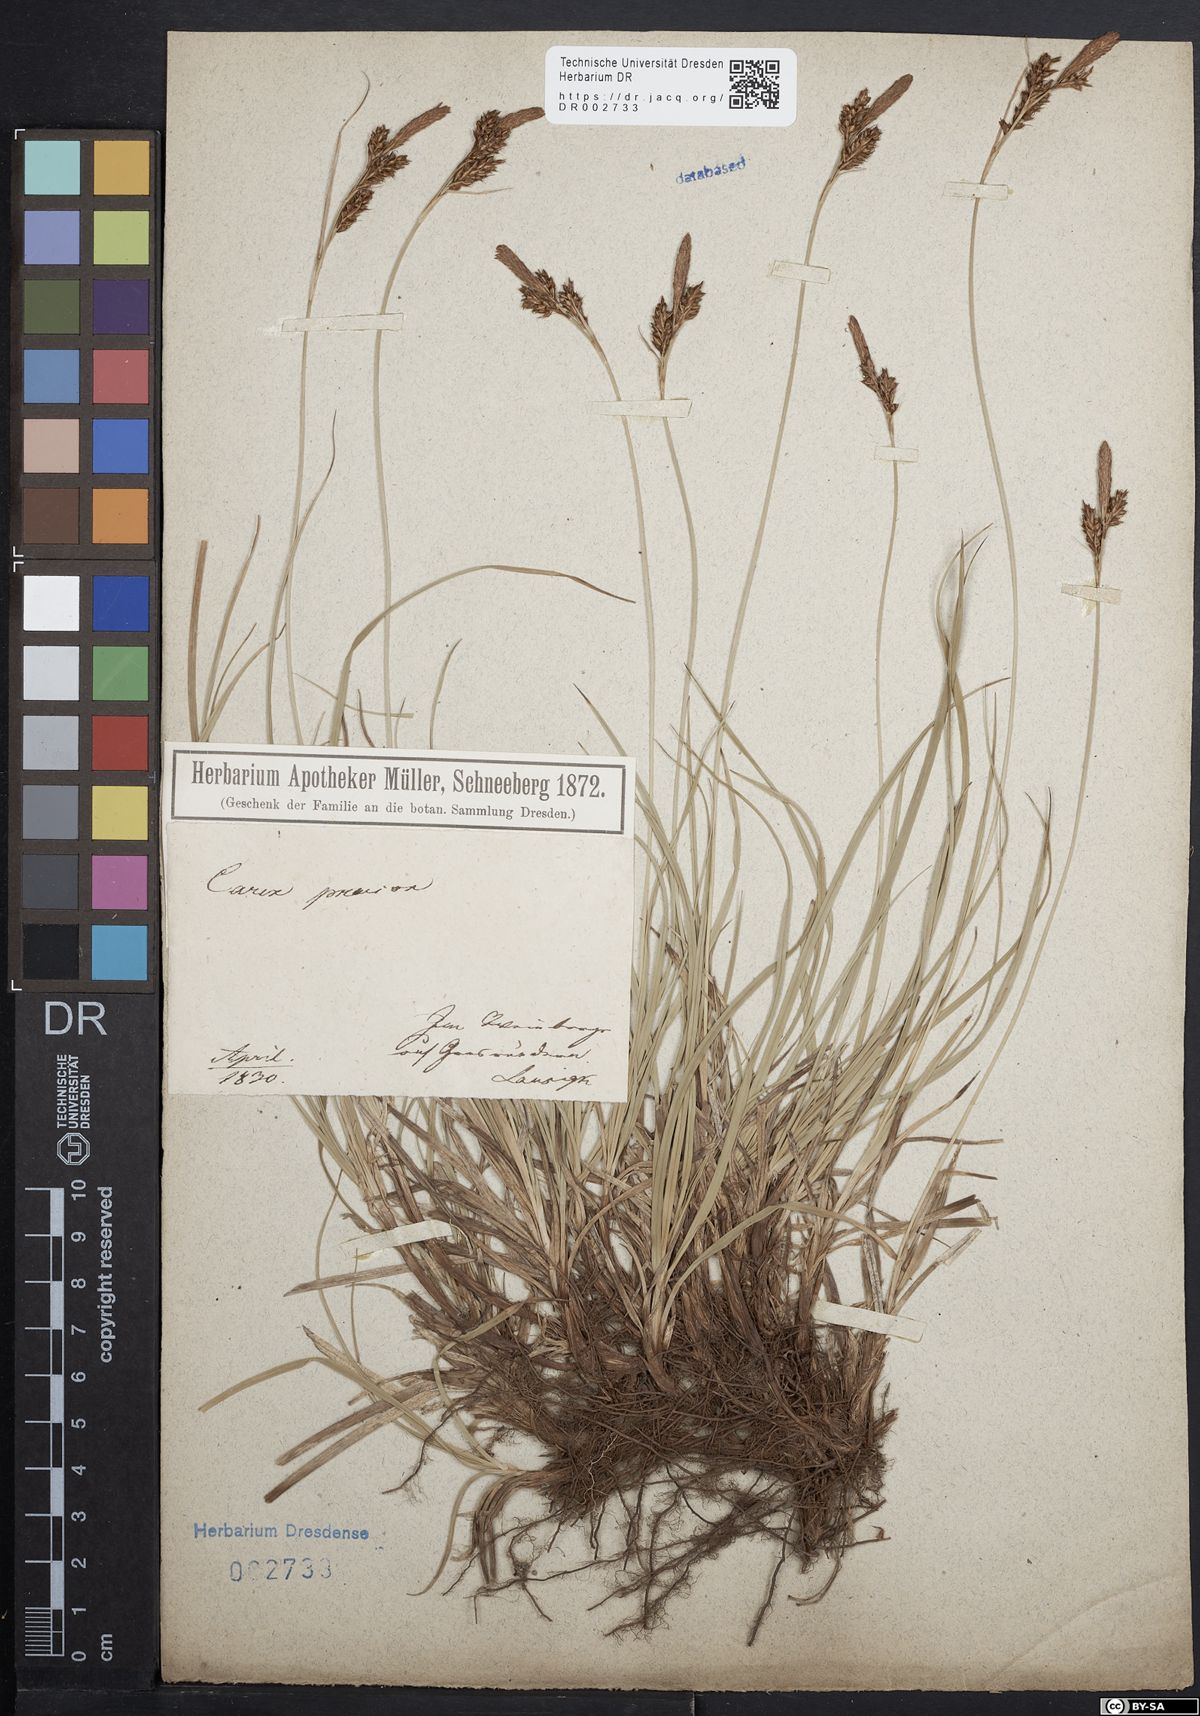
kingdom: Plantae
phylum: Tracheophyta
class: Liliopsida
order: Poales
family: Cyperaceae
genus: Carex
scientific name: Carex caryophyllea
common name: Spring sedge
